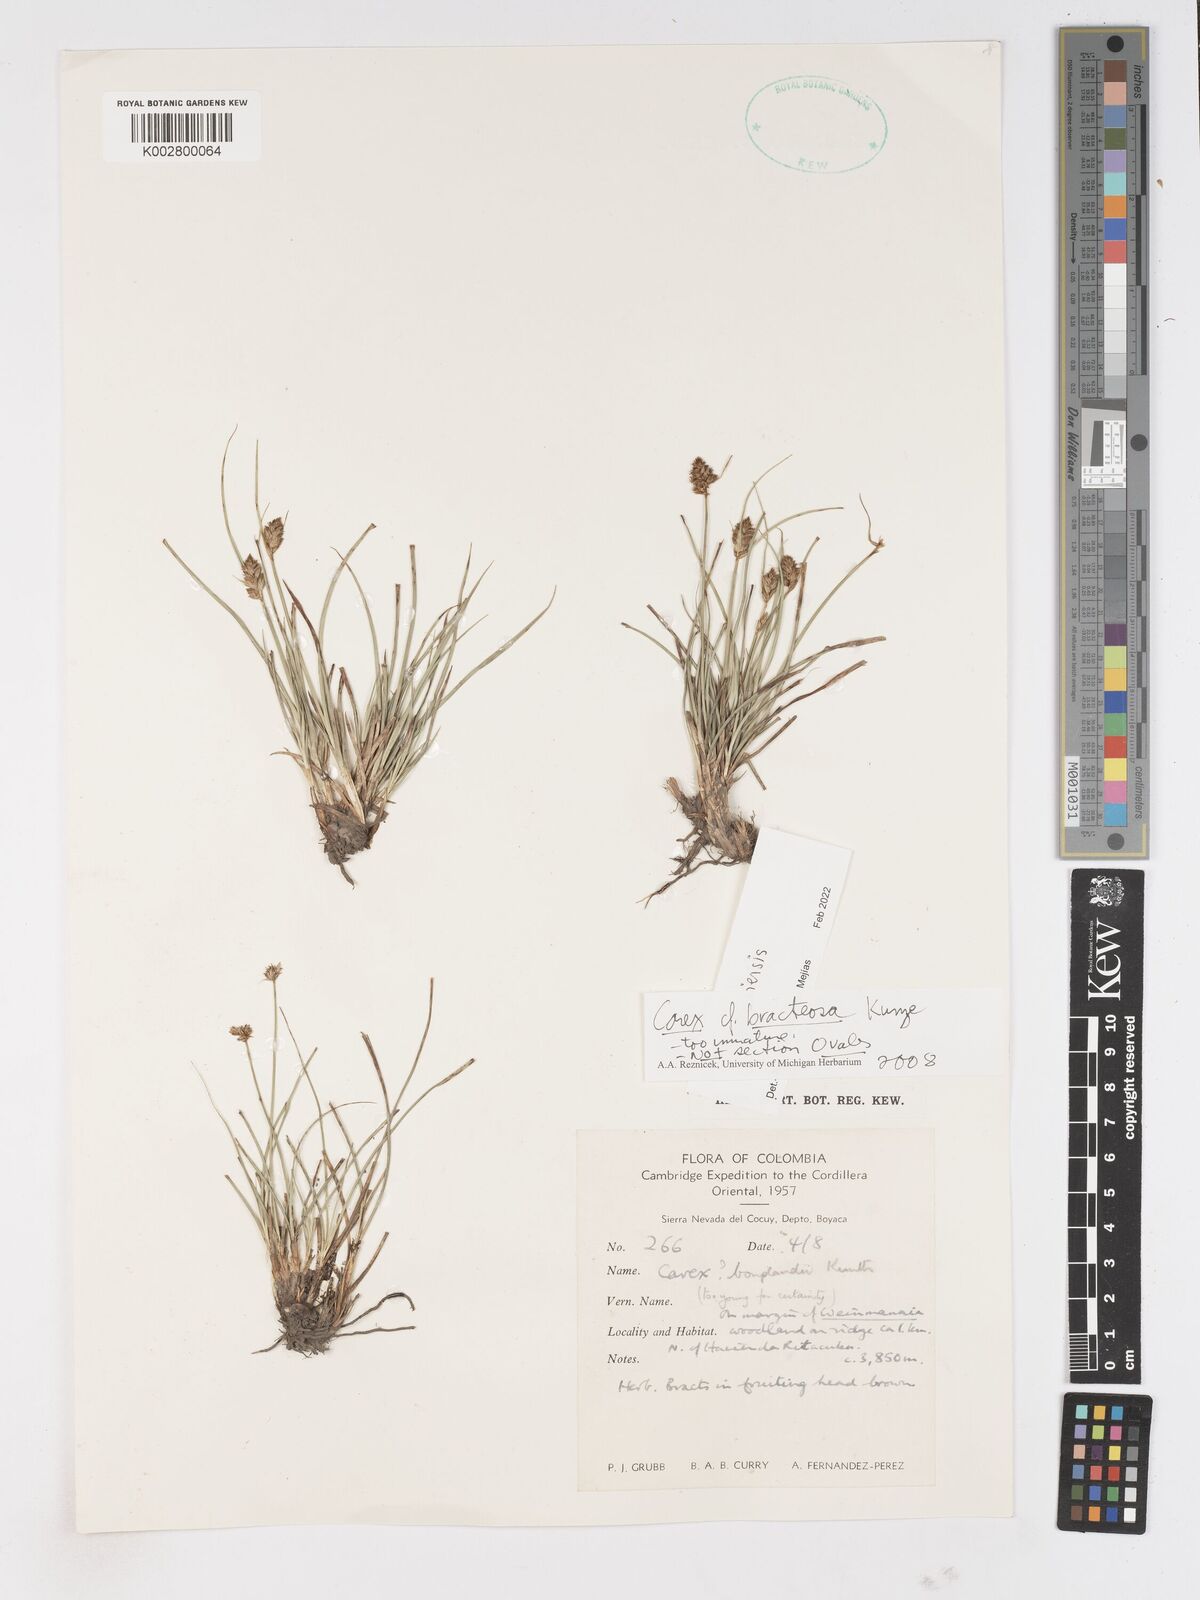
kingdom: Plantae
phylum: Tracheophyta
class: Liliopsida
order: Poales
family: Cyperaceae
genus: Carex
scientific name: Carex bracteosa
